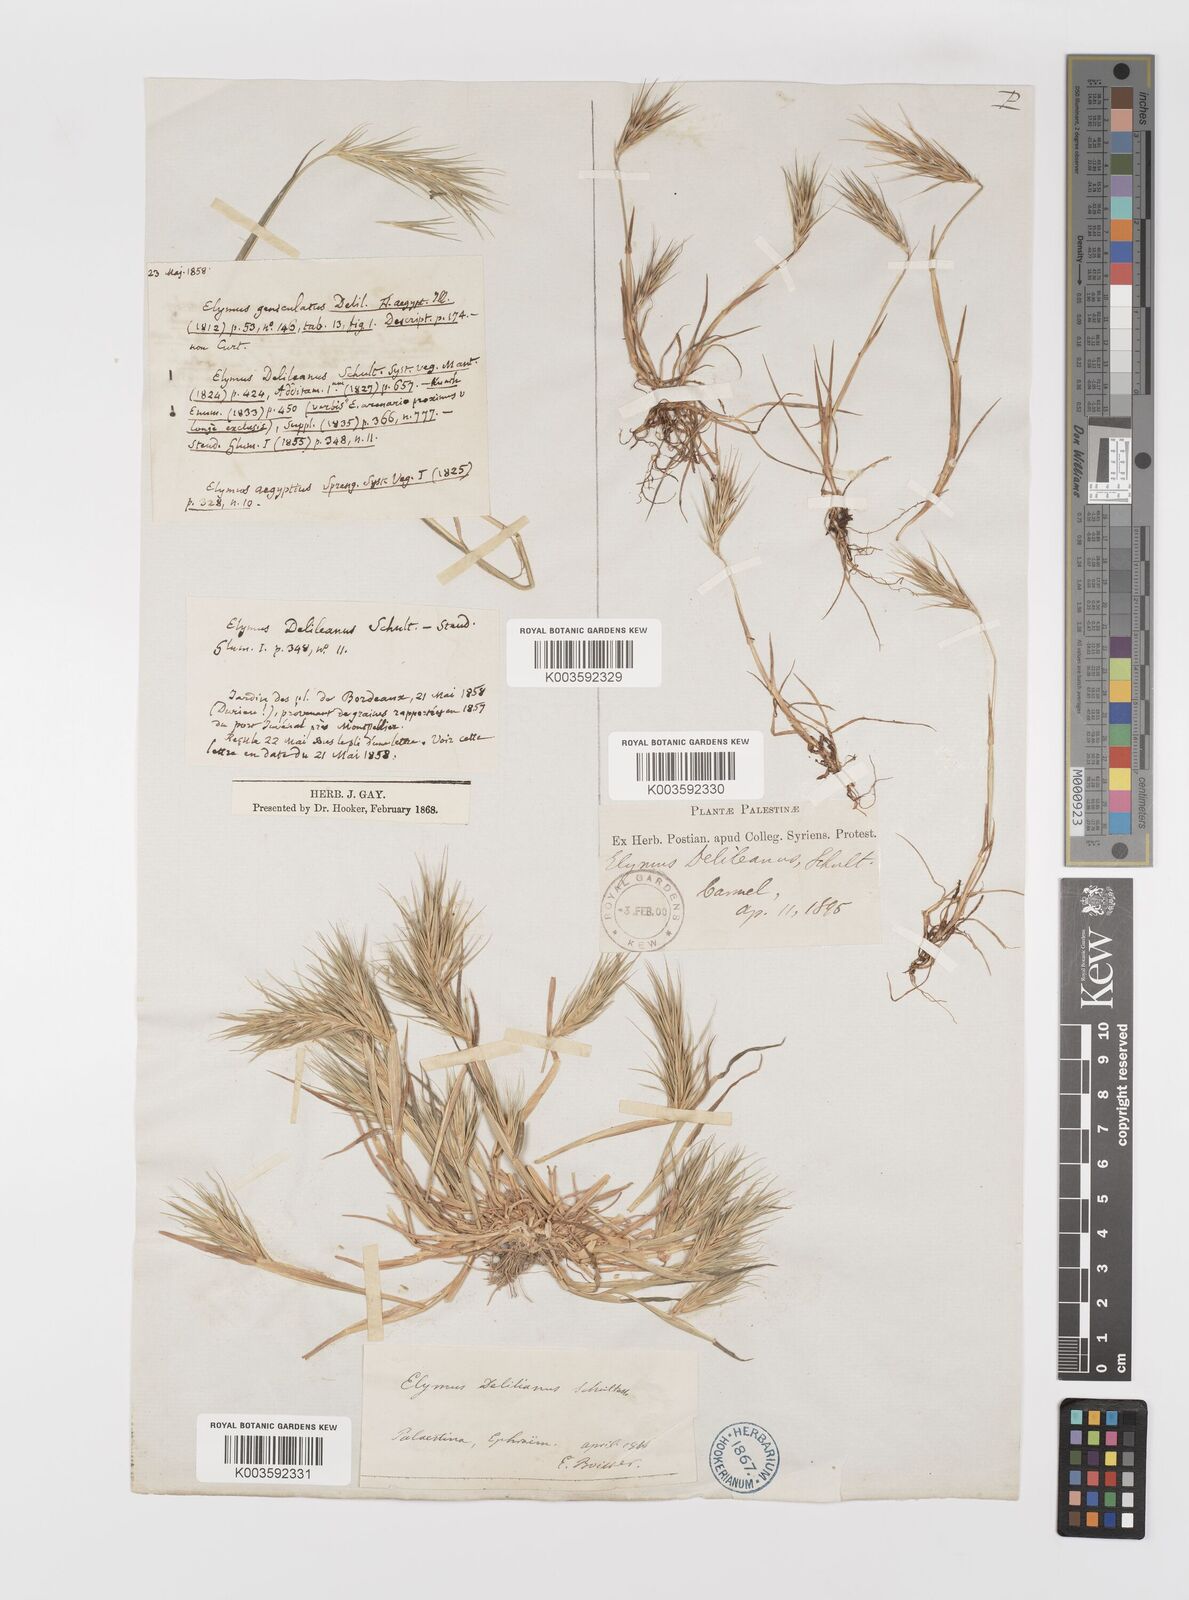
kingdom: Plantae
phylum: Tracheophyta
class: Liliopsida
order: Poales
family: Poaceae
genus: Crithopsis
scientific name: Crithopsis delileana
